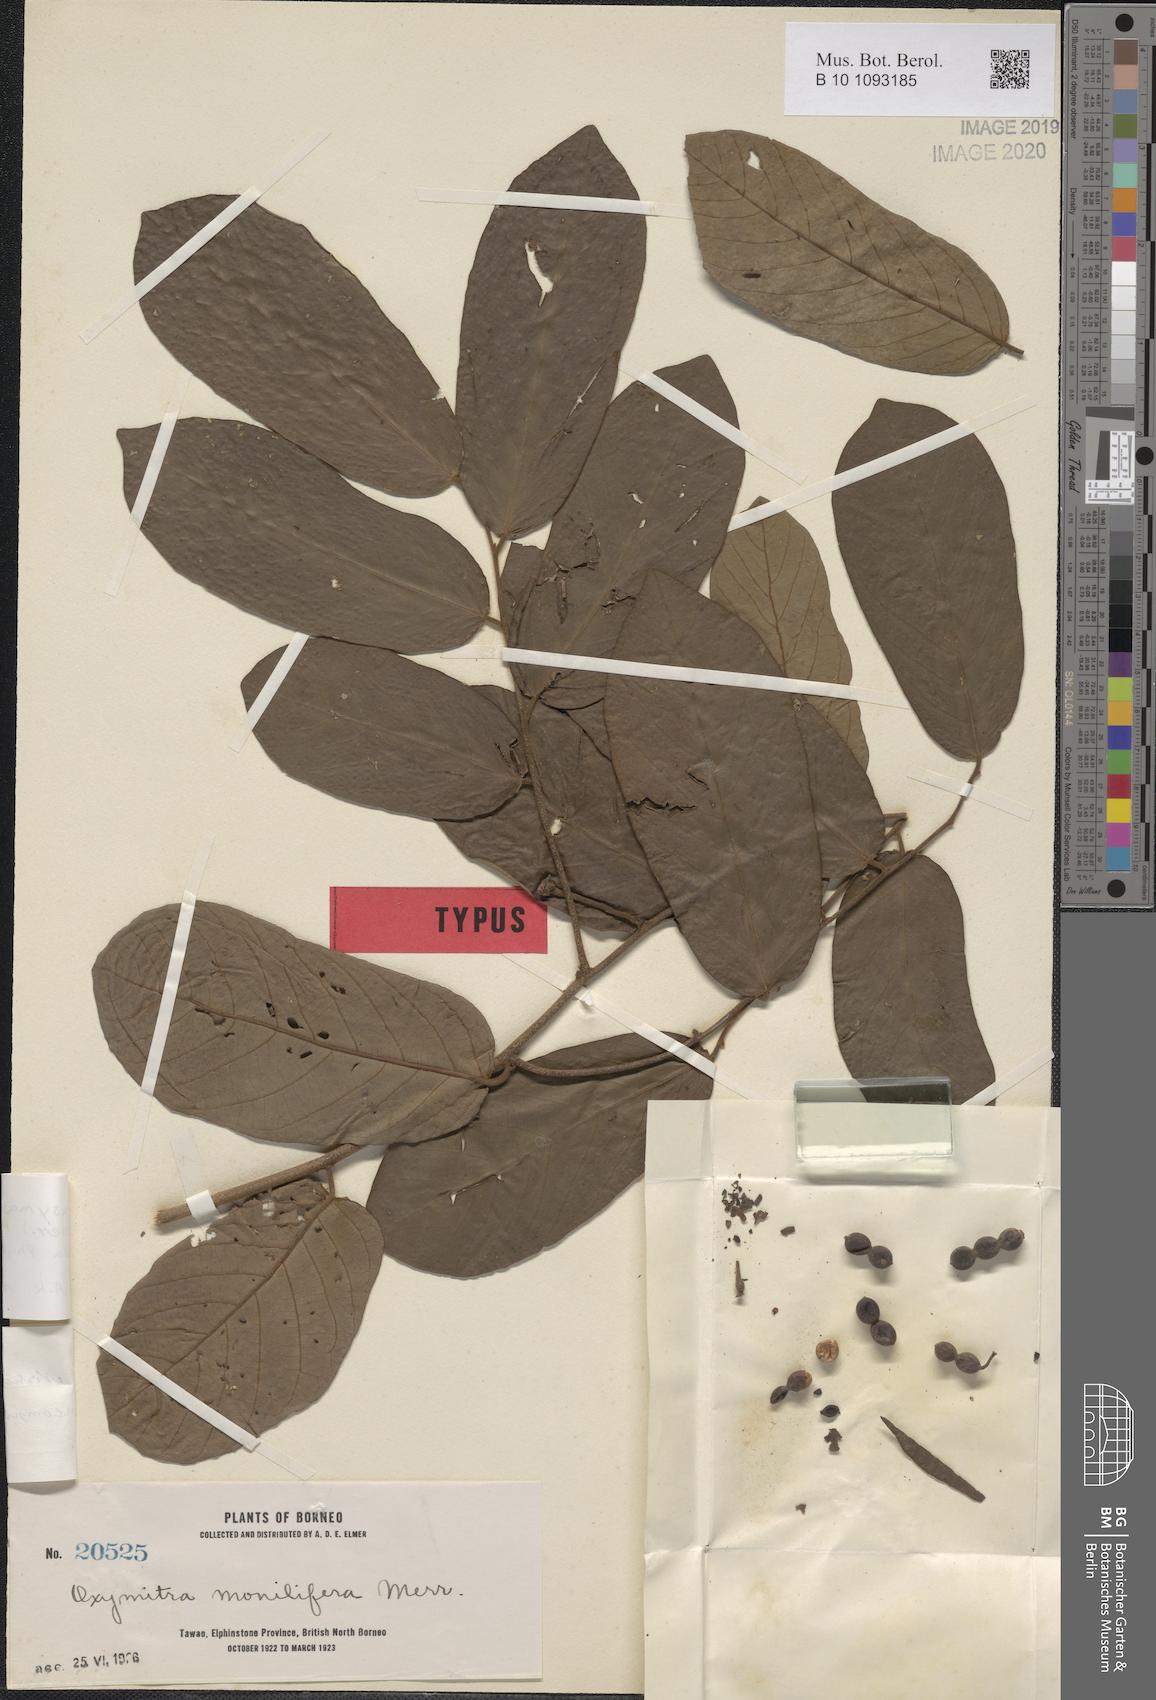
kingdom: Plantae
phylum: Tracheophyta
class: Magnoliopsida
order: Magnoliales
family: Annonaceae
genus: Desmos
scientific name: Desmos dumosus
